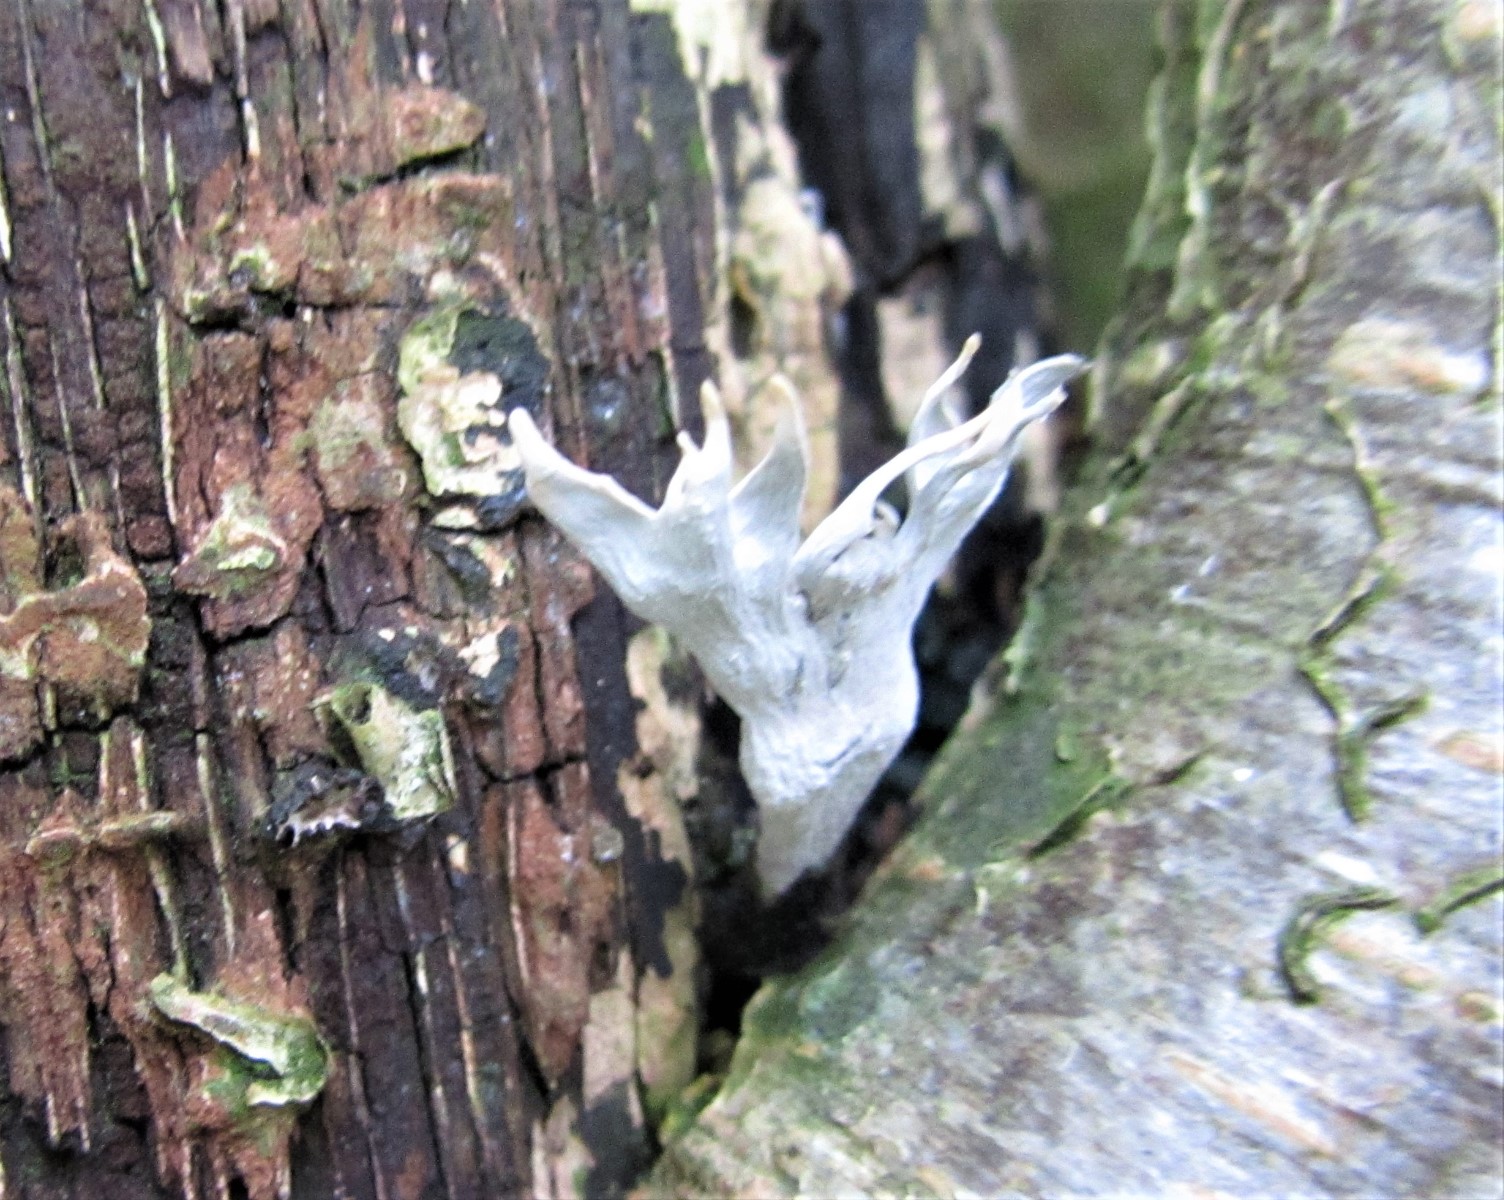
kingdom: Fungi
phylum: Ascomycota
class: Sordariomycetes
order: Xylariales
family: Xylariaceae
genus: Xylaria
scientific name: Xylaria hypoxylon
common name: grenet stødsvamp
